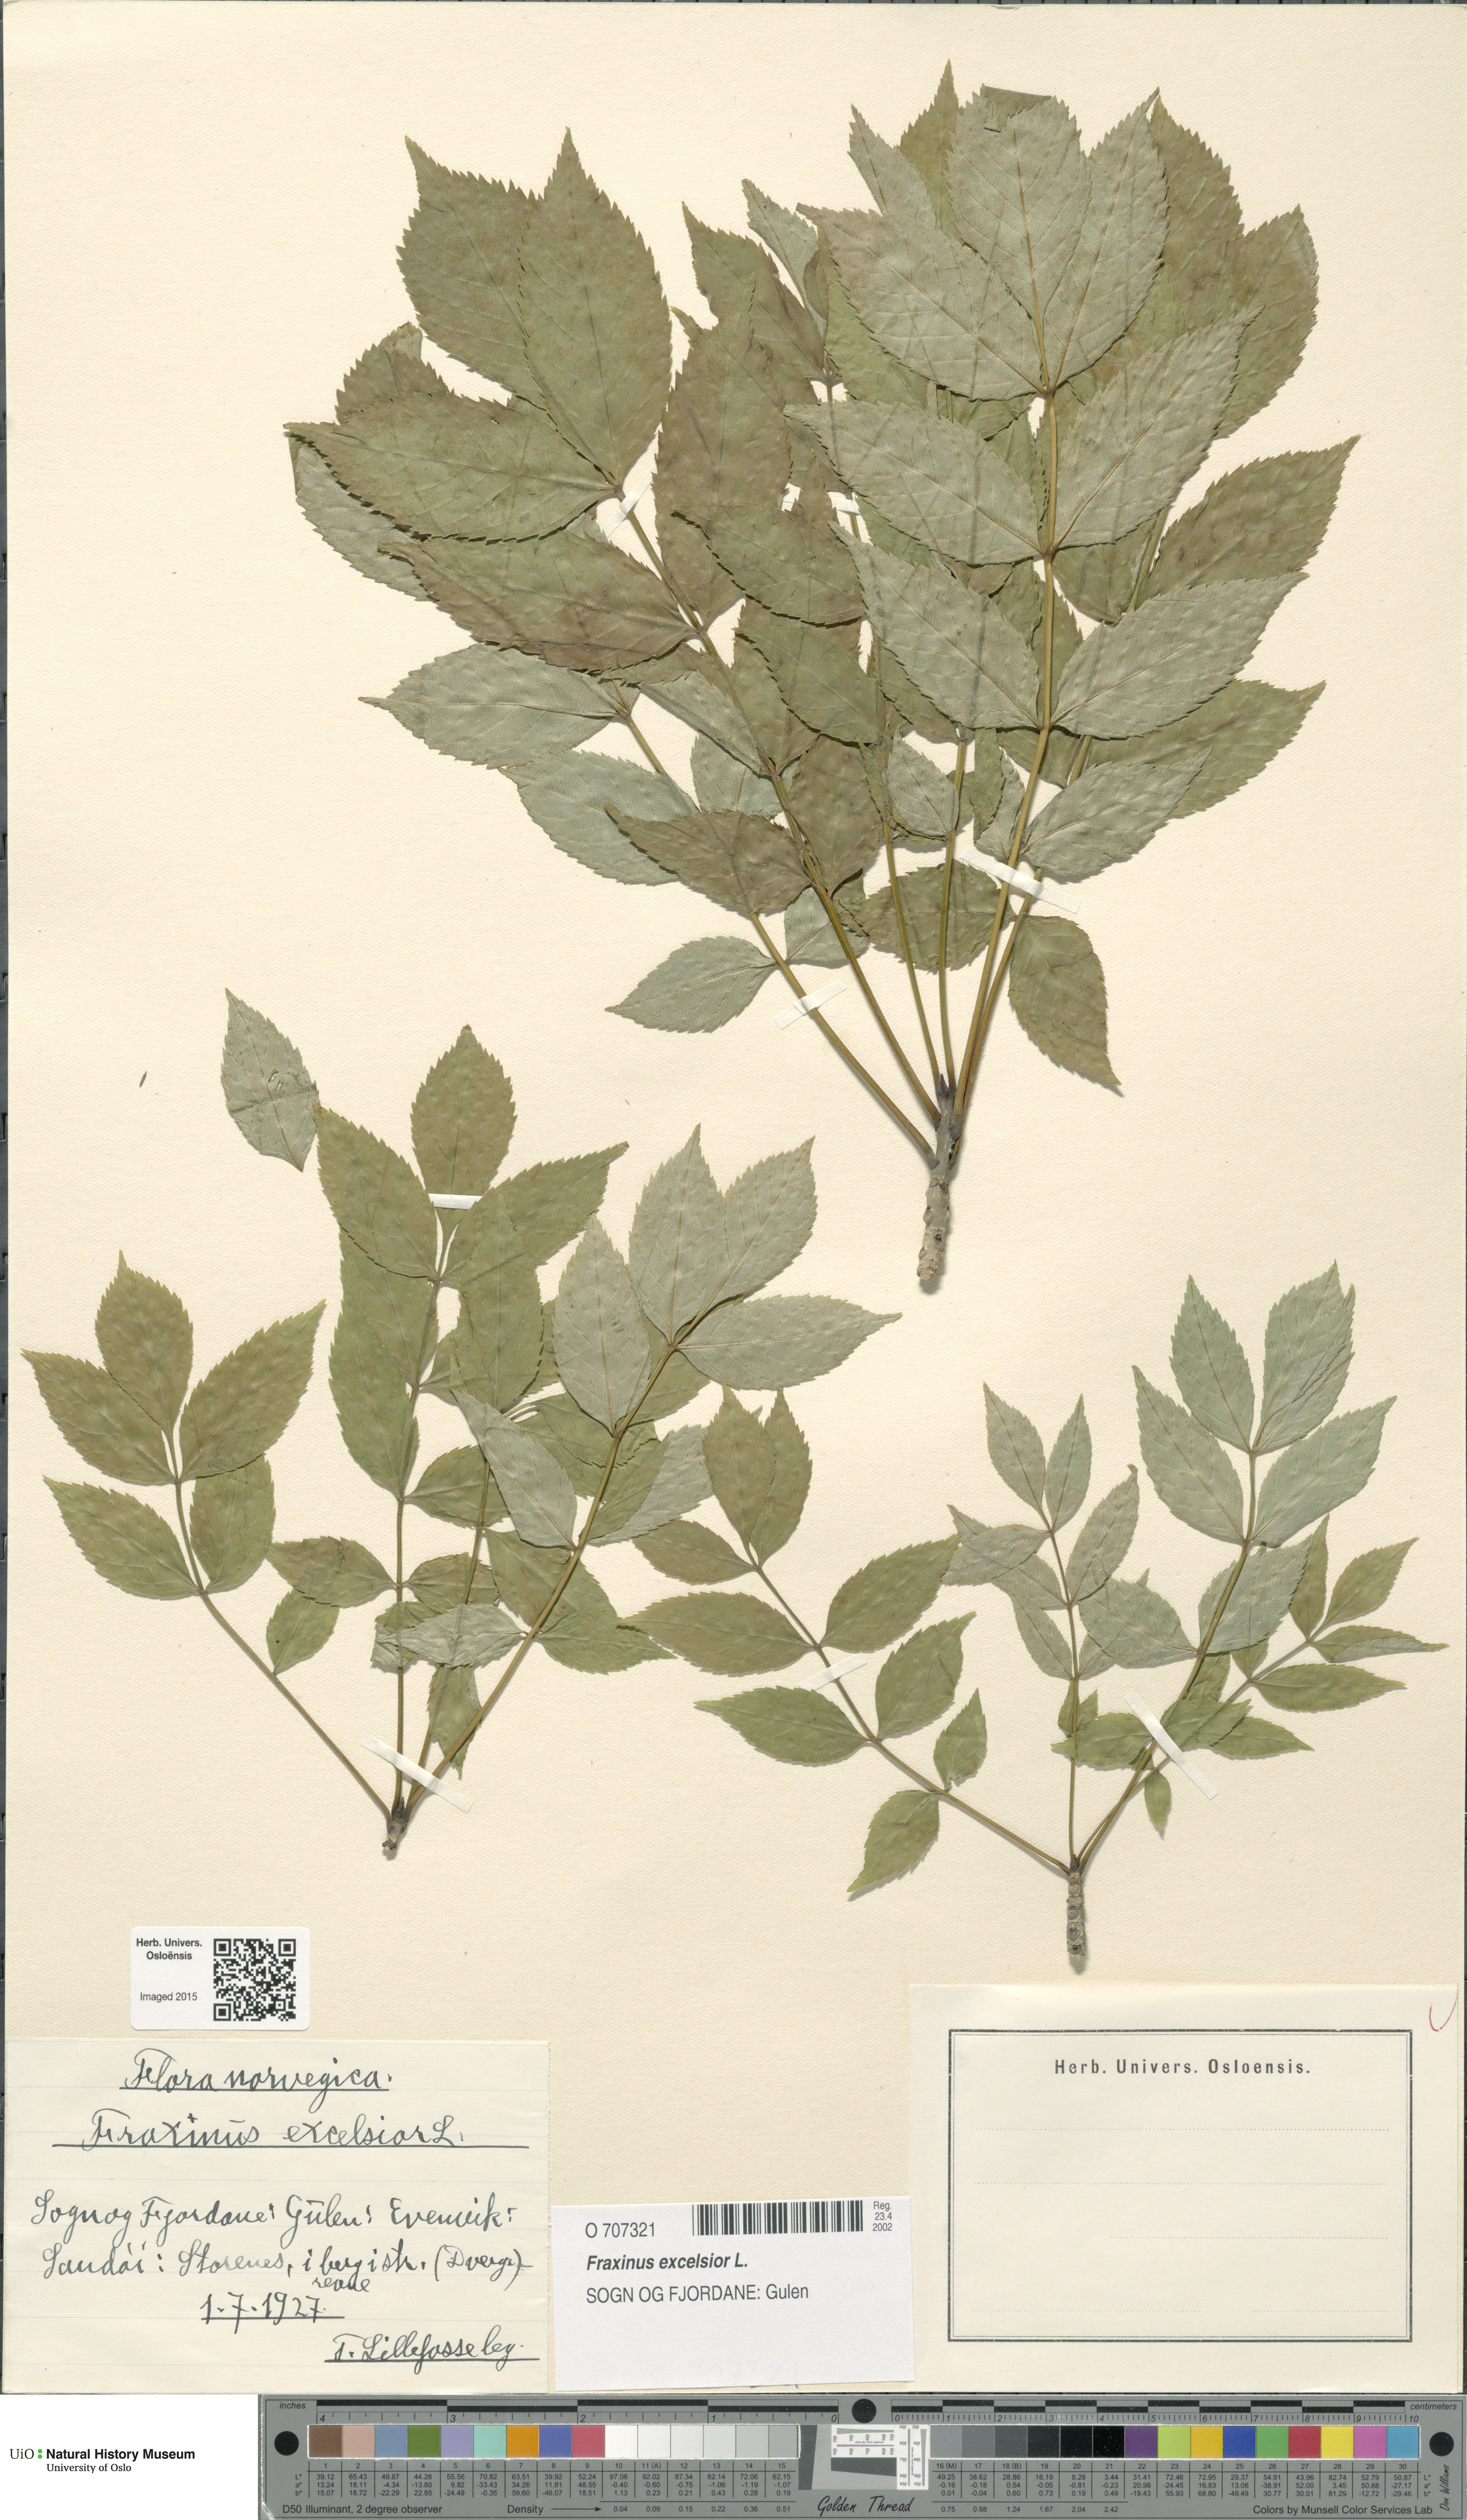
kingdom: Plantae
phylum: Tracheophyta
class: Magnoliopsida
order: Lamiales
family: Oleaceae
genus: Fraxinus
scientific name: Fraxinus excelsior
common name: European ash
